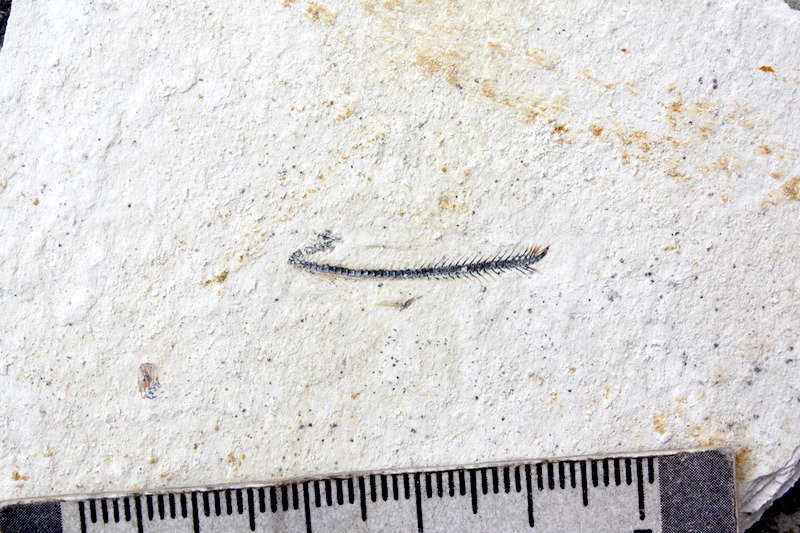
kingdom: Animalia
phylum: Chordata
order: Salmoniformes
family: Orthogonikleithridae
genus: Orthogonikleithrus
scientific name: Orthogonikleithrus hoelli
